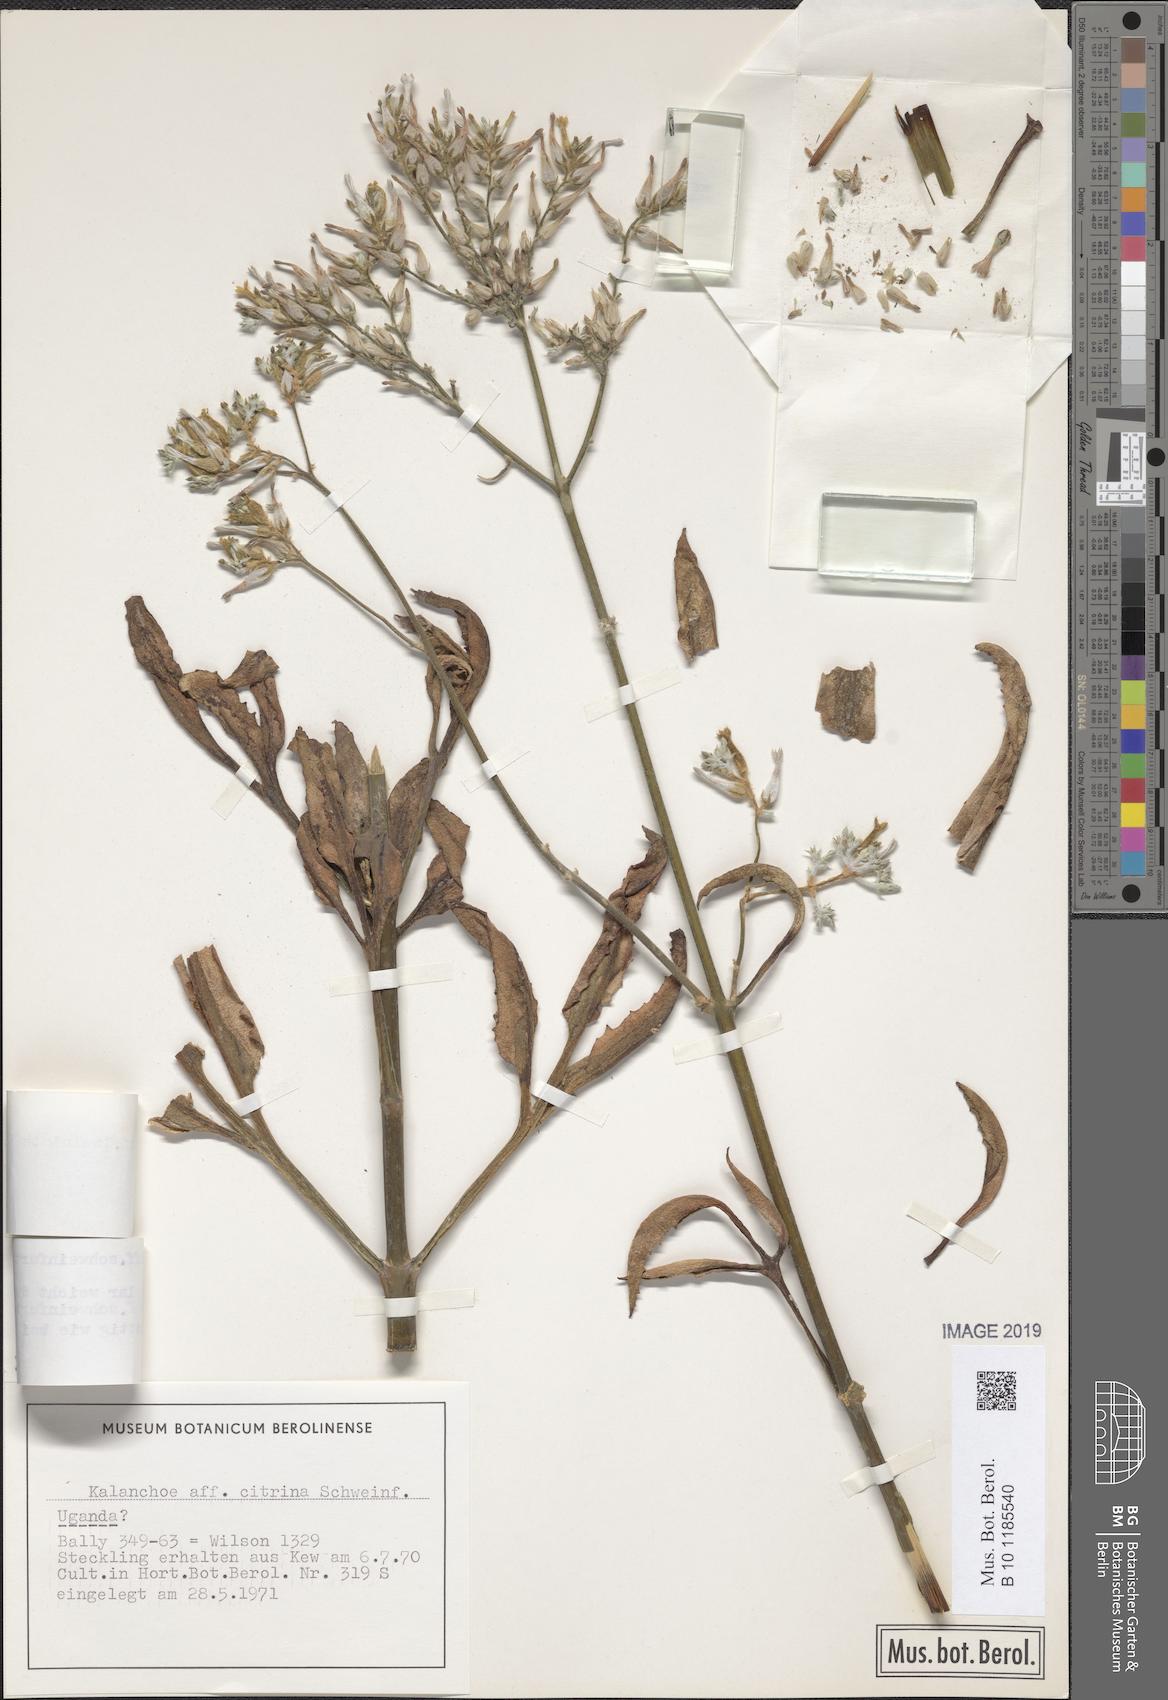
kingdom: Plantae
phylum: Tracheophyta
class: Magnoliopsida
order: Saxifragales
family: Crassulaceae
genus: Kalanchoe
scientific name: Kalanchoe laciniata
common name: Christmastree plant
